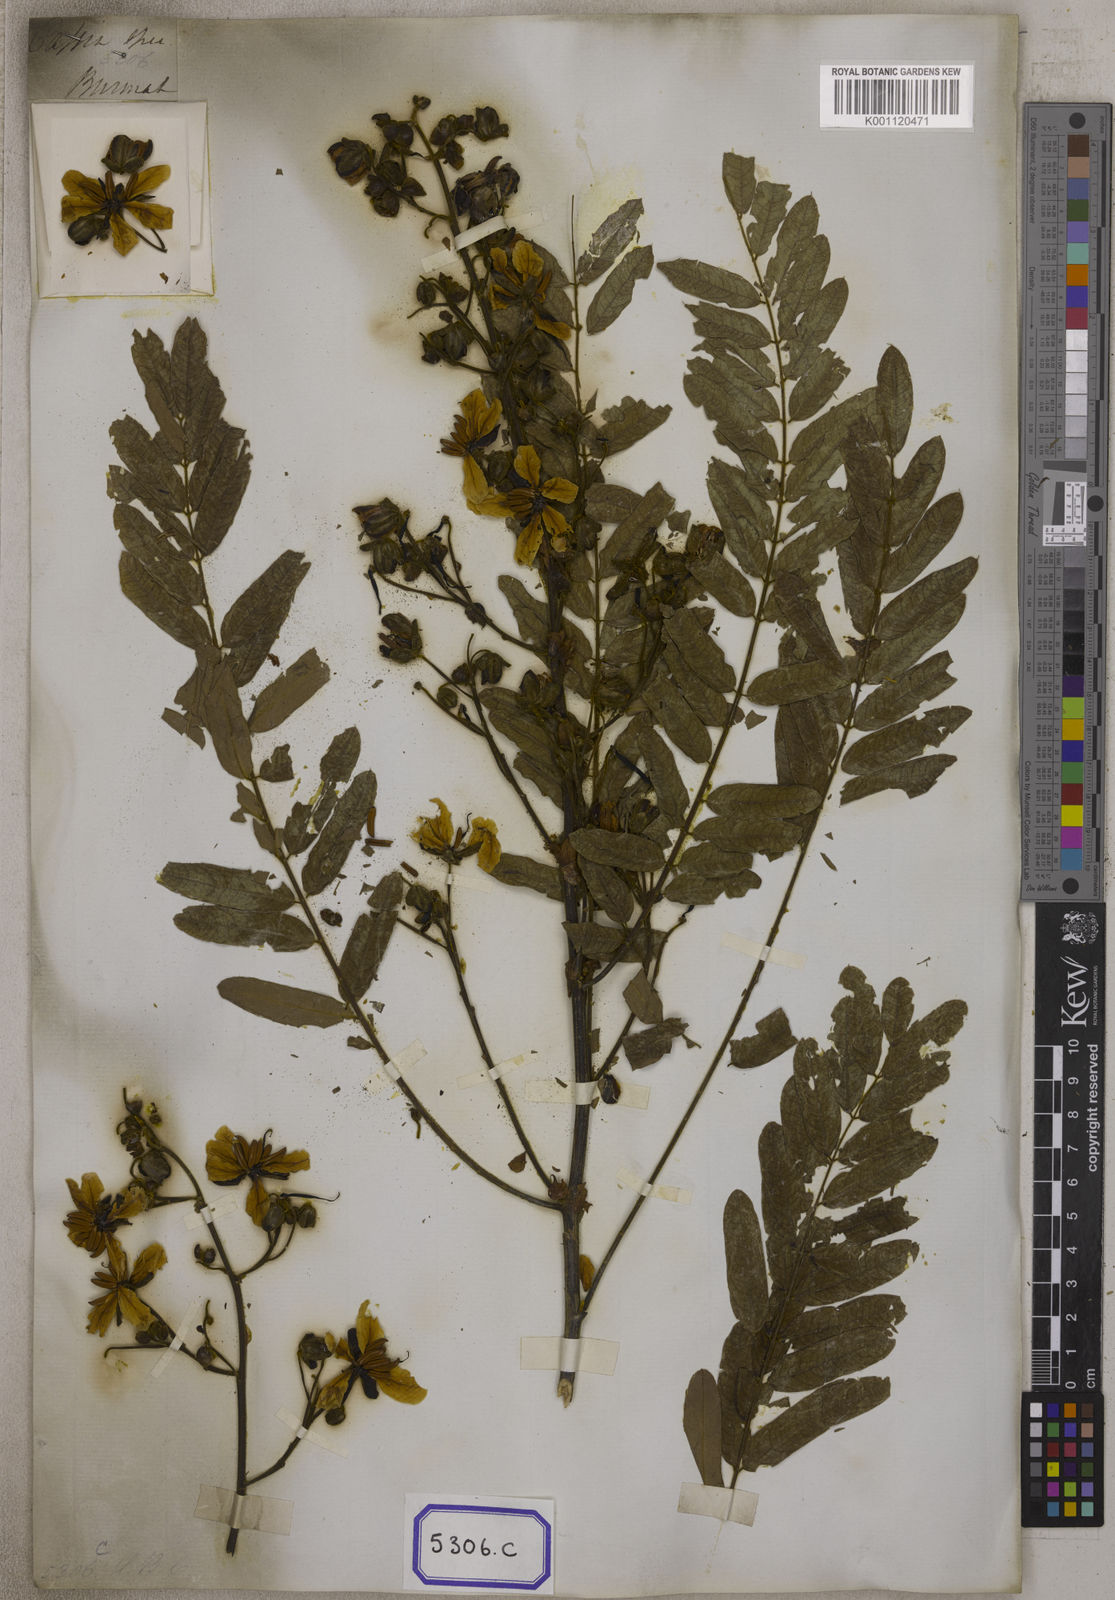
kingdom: Plantae
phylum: Tracheophyta
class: Magnoliopsida
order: Fabales
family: Fabaceae
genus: Senna
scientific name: Senna timoriensis
